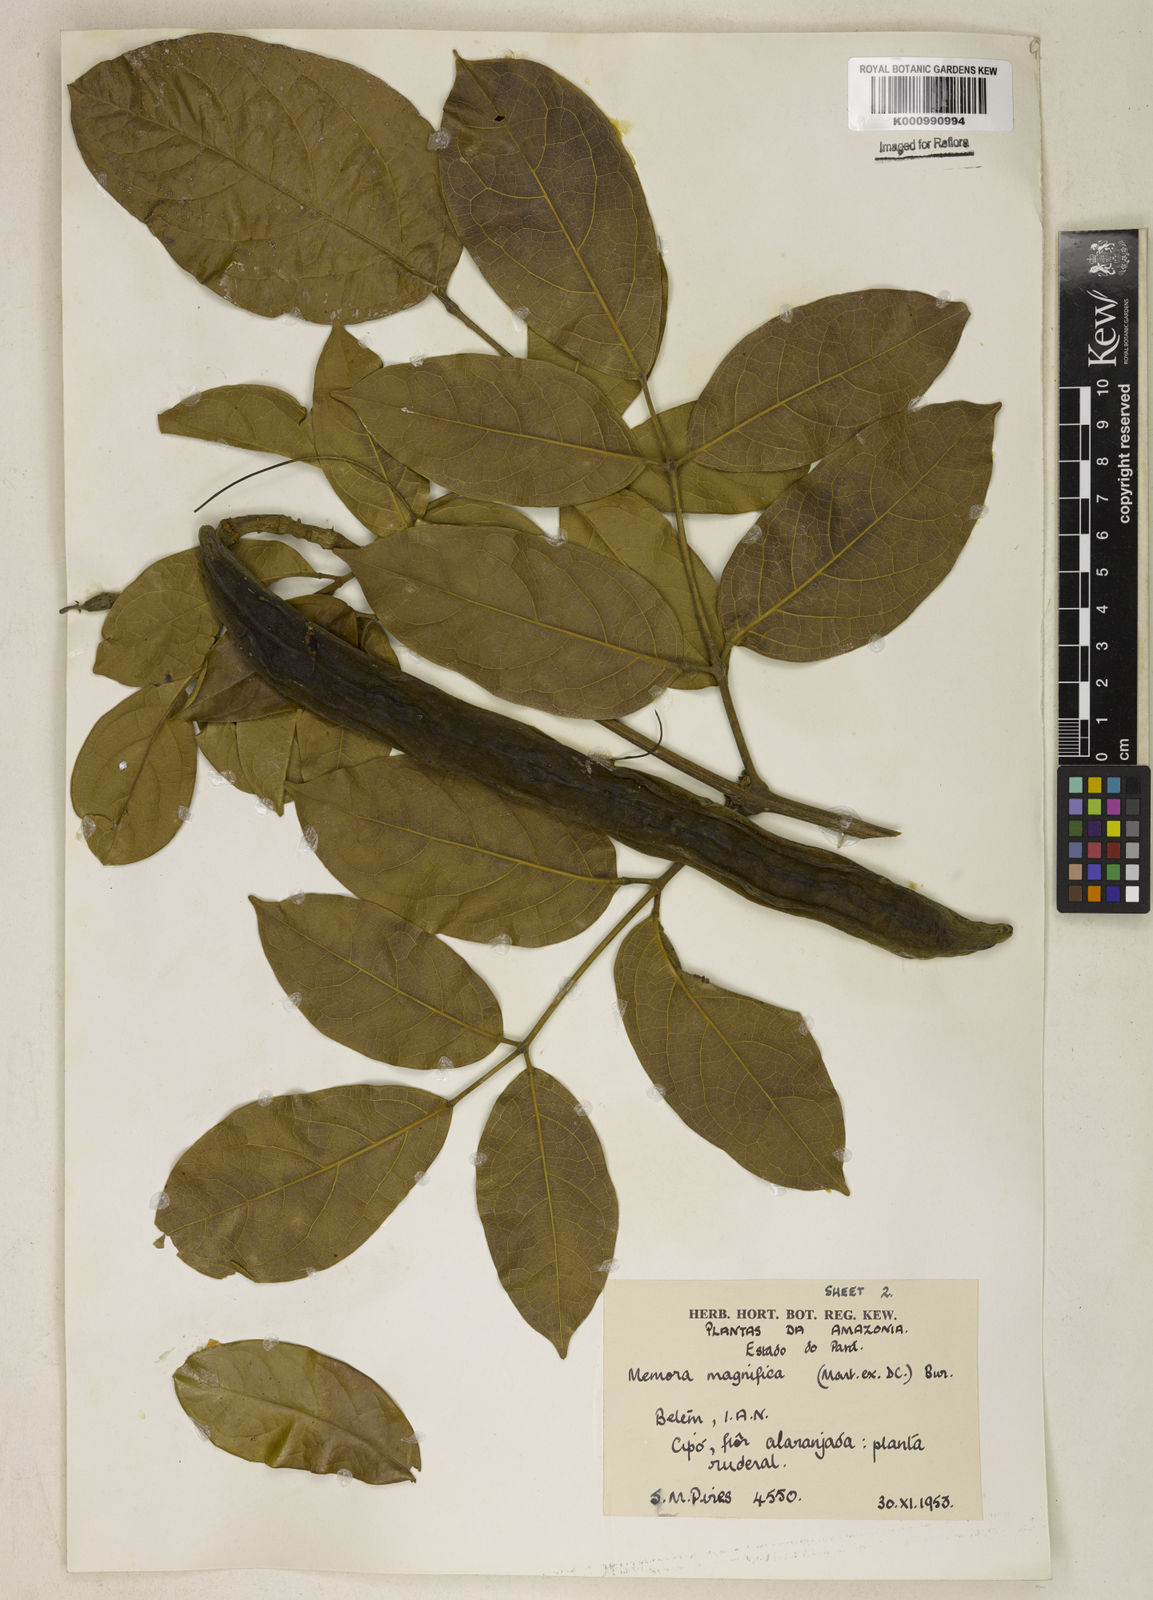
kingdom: Plantae
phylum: Tracheophyta
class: Magnoliopsida
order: Lamiales
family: Bignoniaceae
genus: Adenocalymma
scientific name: Adenocalymma magnificum
